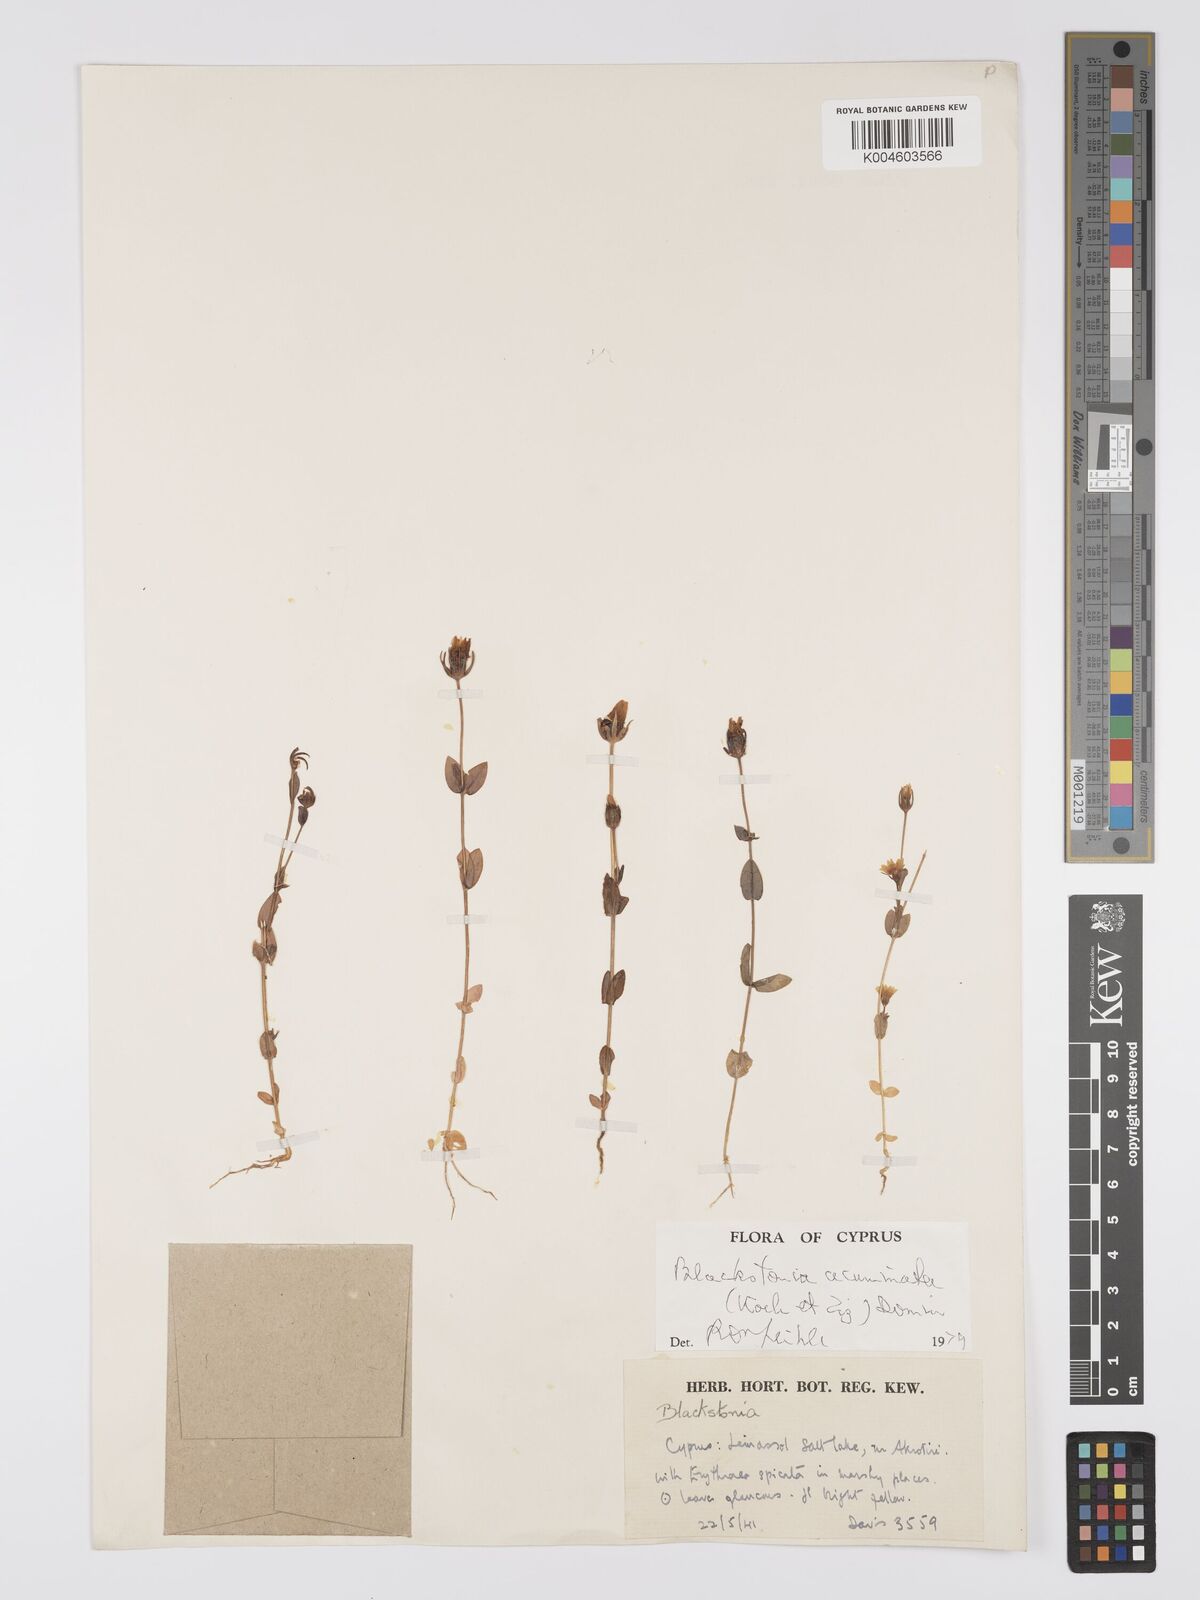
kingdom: Plantae
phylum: Tracheophyta
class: Magnoliopsida
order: Gentianales
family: Gentianaceae
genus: Blackstonia
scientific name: Blackstonia acuminata
